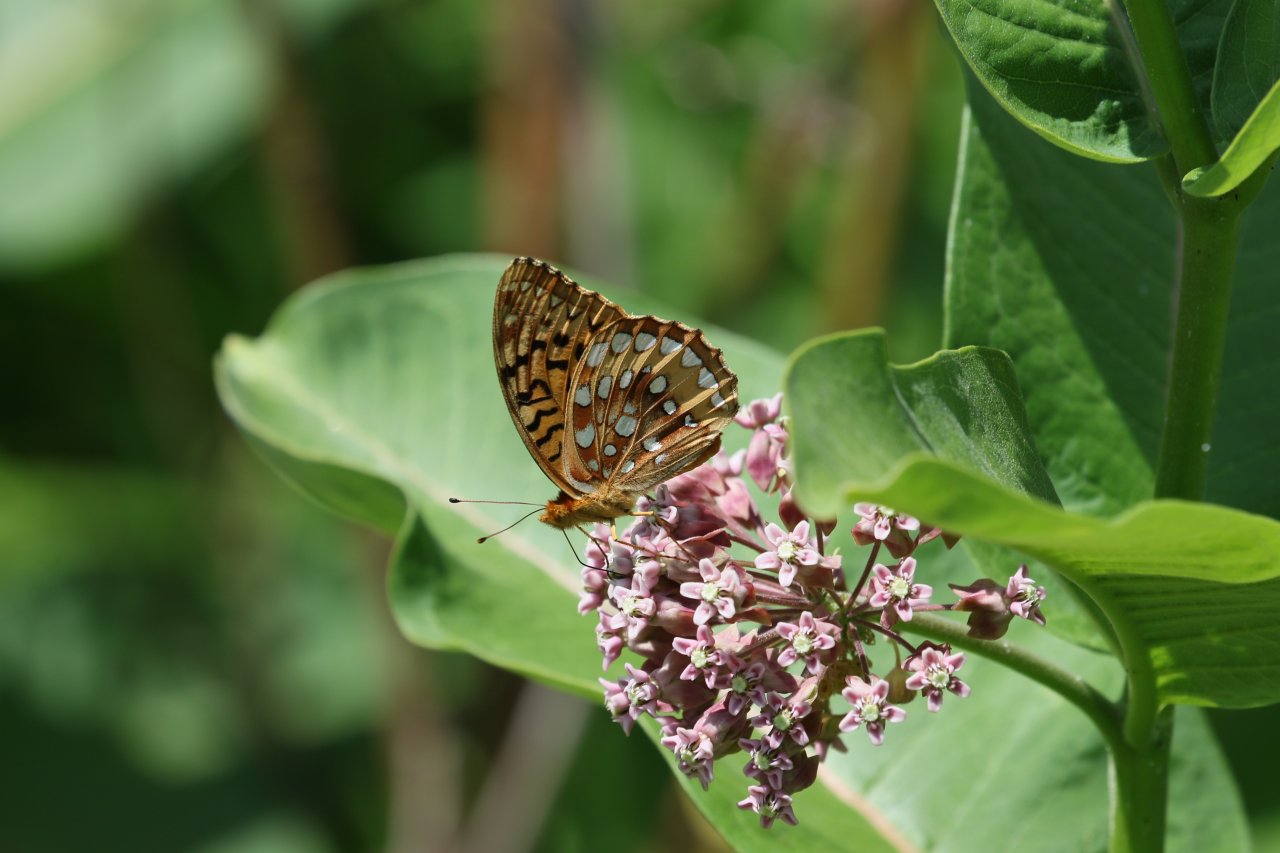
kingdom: Animalia
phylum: Arthropoda
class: Insecta
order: Lepidoptera
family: Nymphalidae
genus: Speyeria
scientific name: Speyeria cybele
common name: Great Spangled Fritillary
